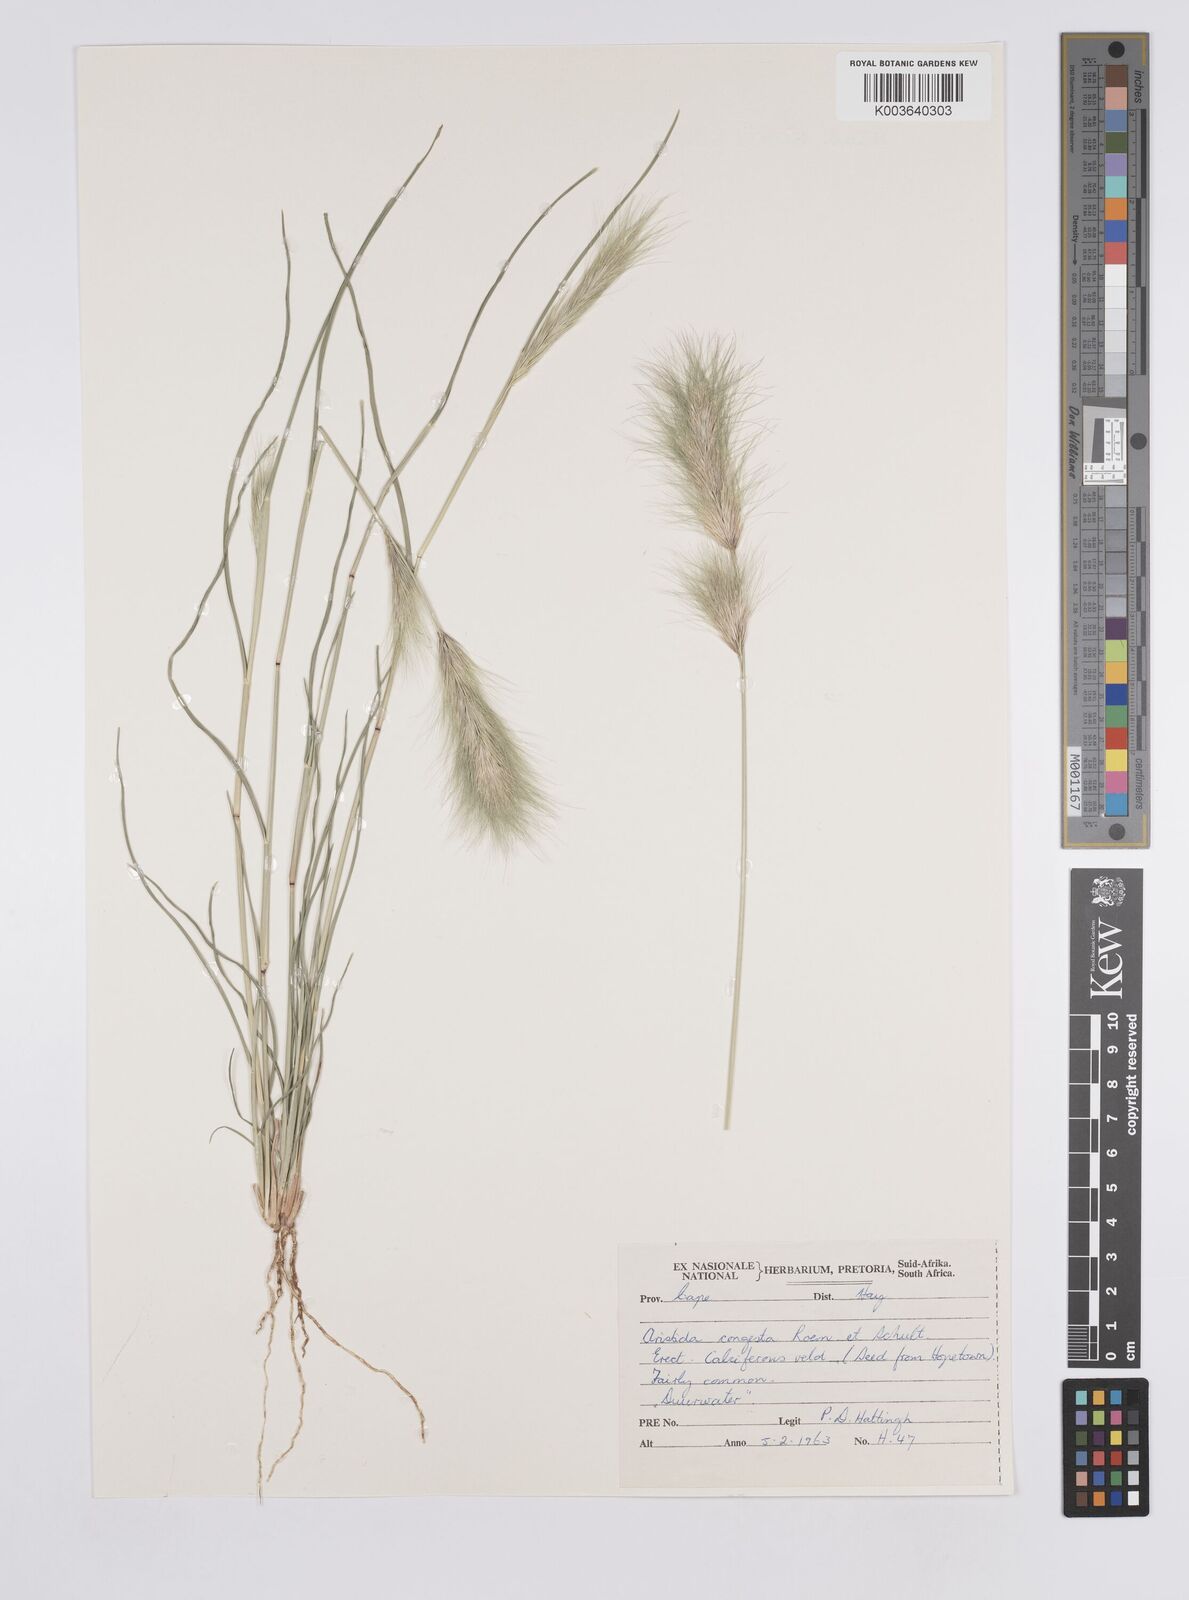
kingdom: Plantae
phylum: Tracheophyta
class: Liliopsida
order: Poales
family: Poaceae
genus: Aristida
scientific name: Aristida congesta
